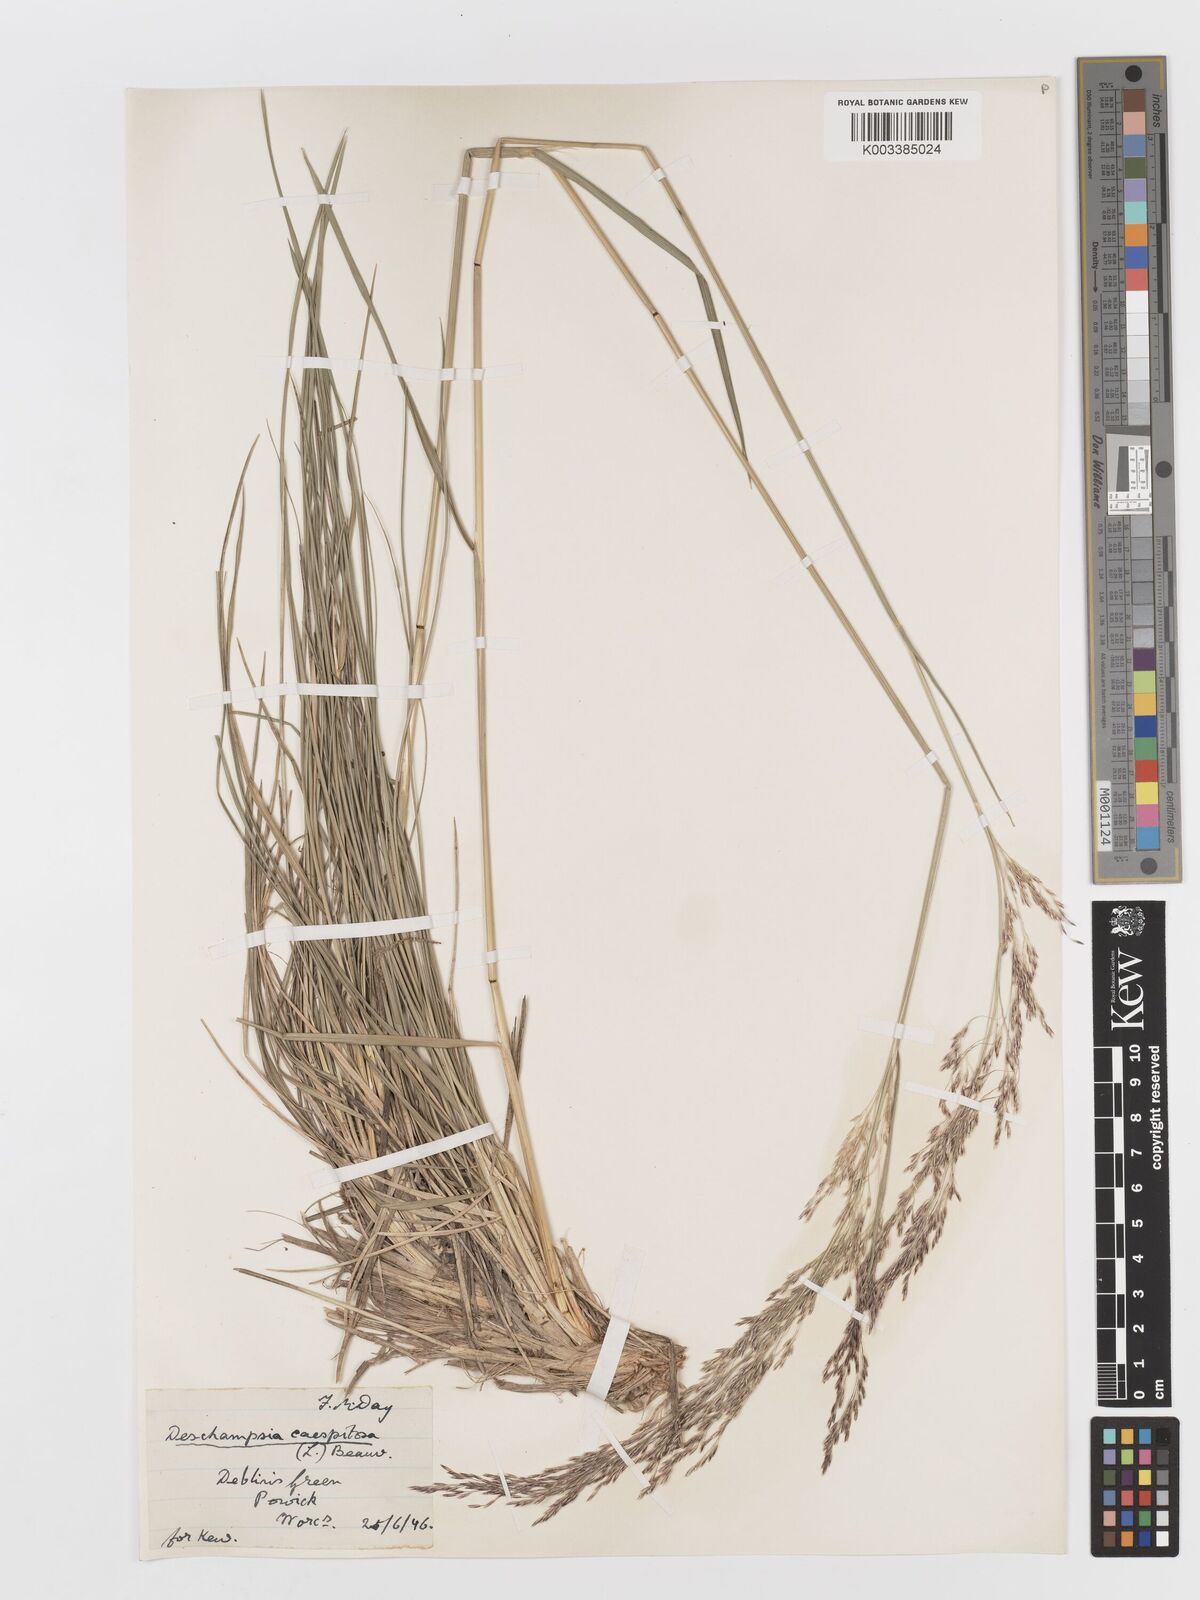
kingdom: Plantae
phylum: Tracheophyta
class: Liliopsida
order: Poales
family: Poaceae
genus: Deschampsia
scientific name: Deschampsia cespitosa
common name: Tufted hair-grass
